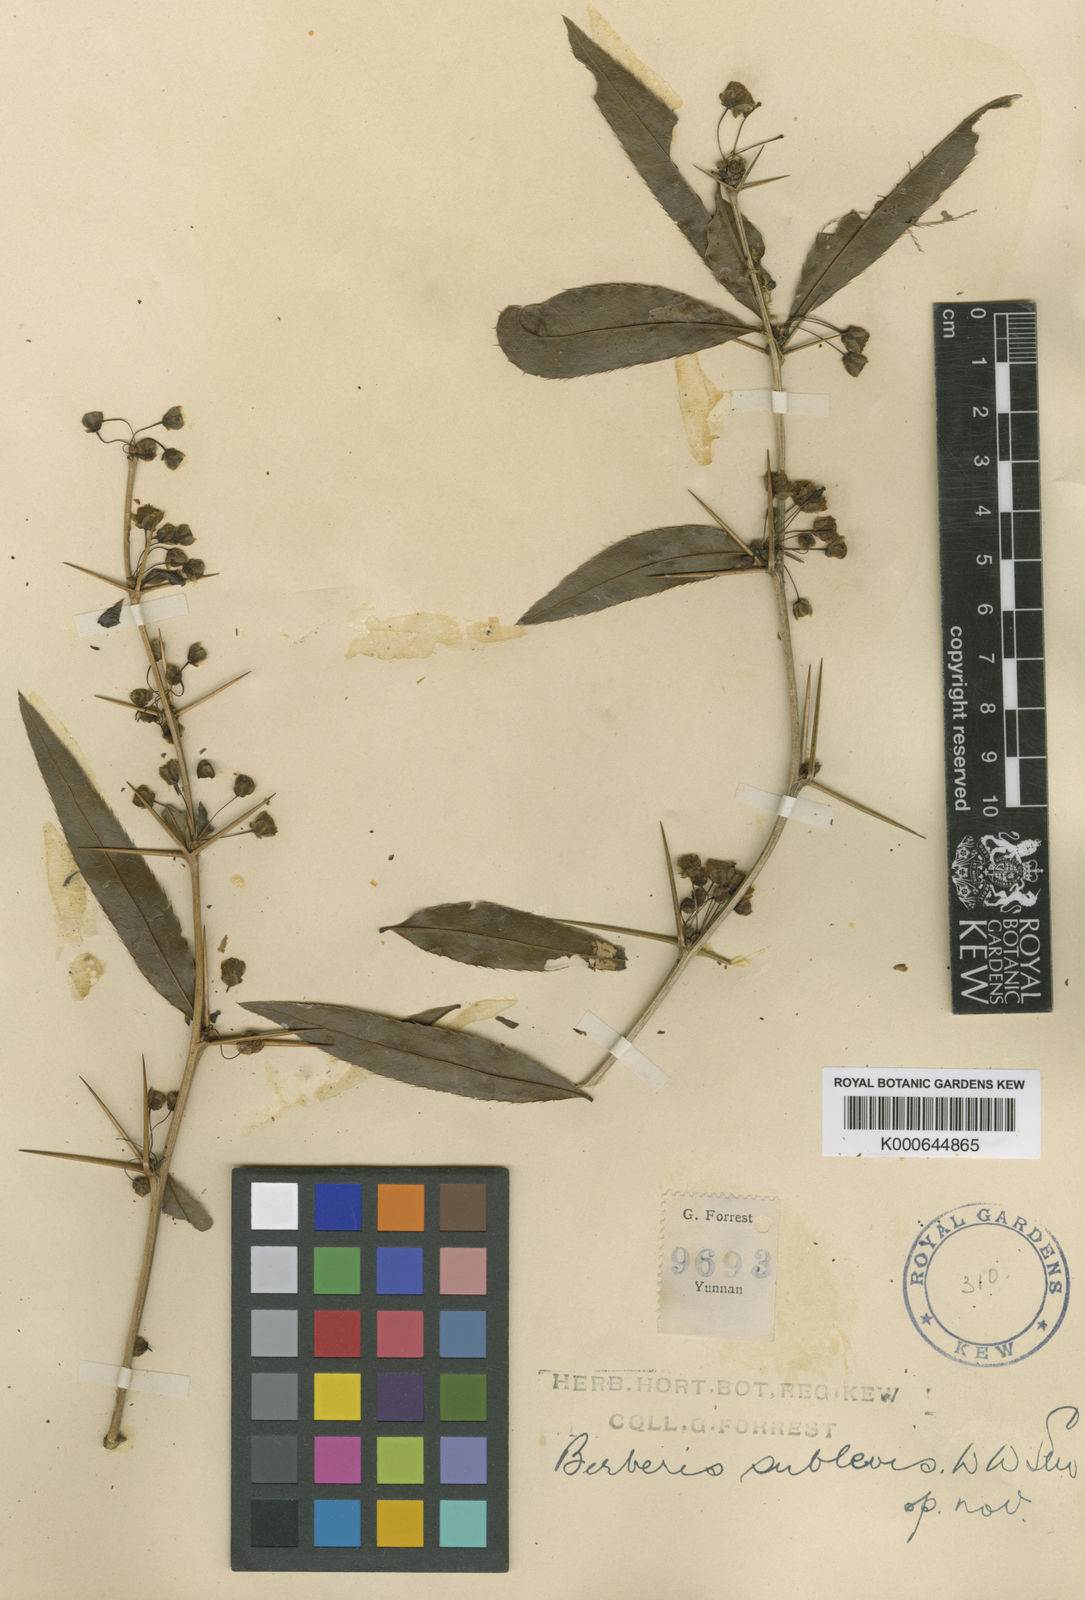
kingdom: Plantae
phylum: Tracheophyta
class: Magnoliopsida
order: Ranunculales
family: Berberidaceae
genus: Berberis
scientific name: Berberis sublevis
